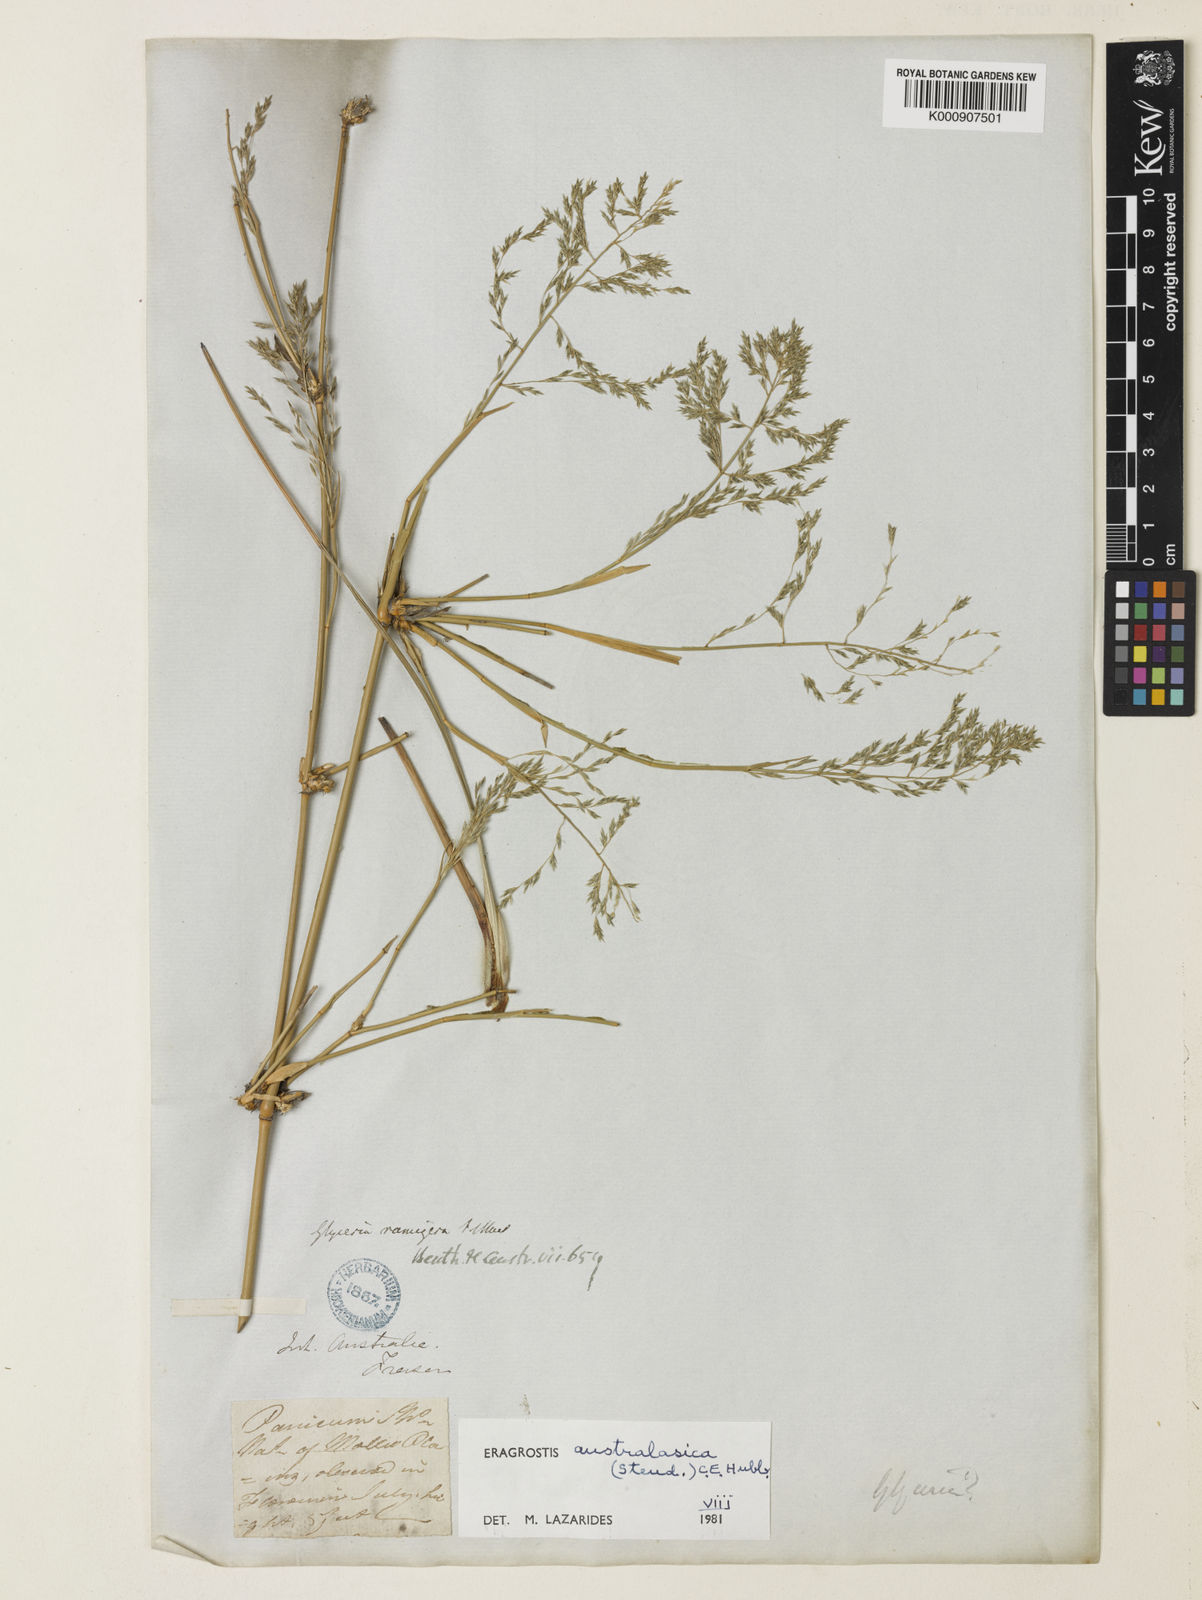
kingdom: Plantae
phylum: Tracheophyta
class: Liliopsida
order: Poales
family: Poaceae
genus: Sporobolus
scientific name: Sporobolus ramigerus
